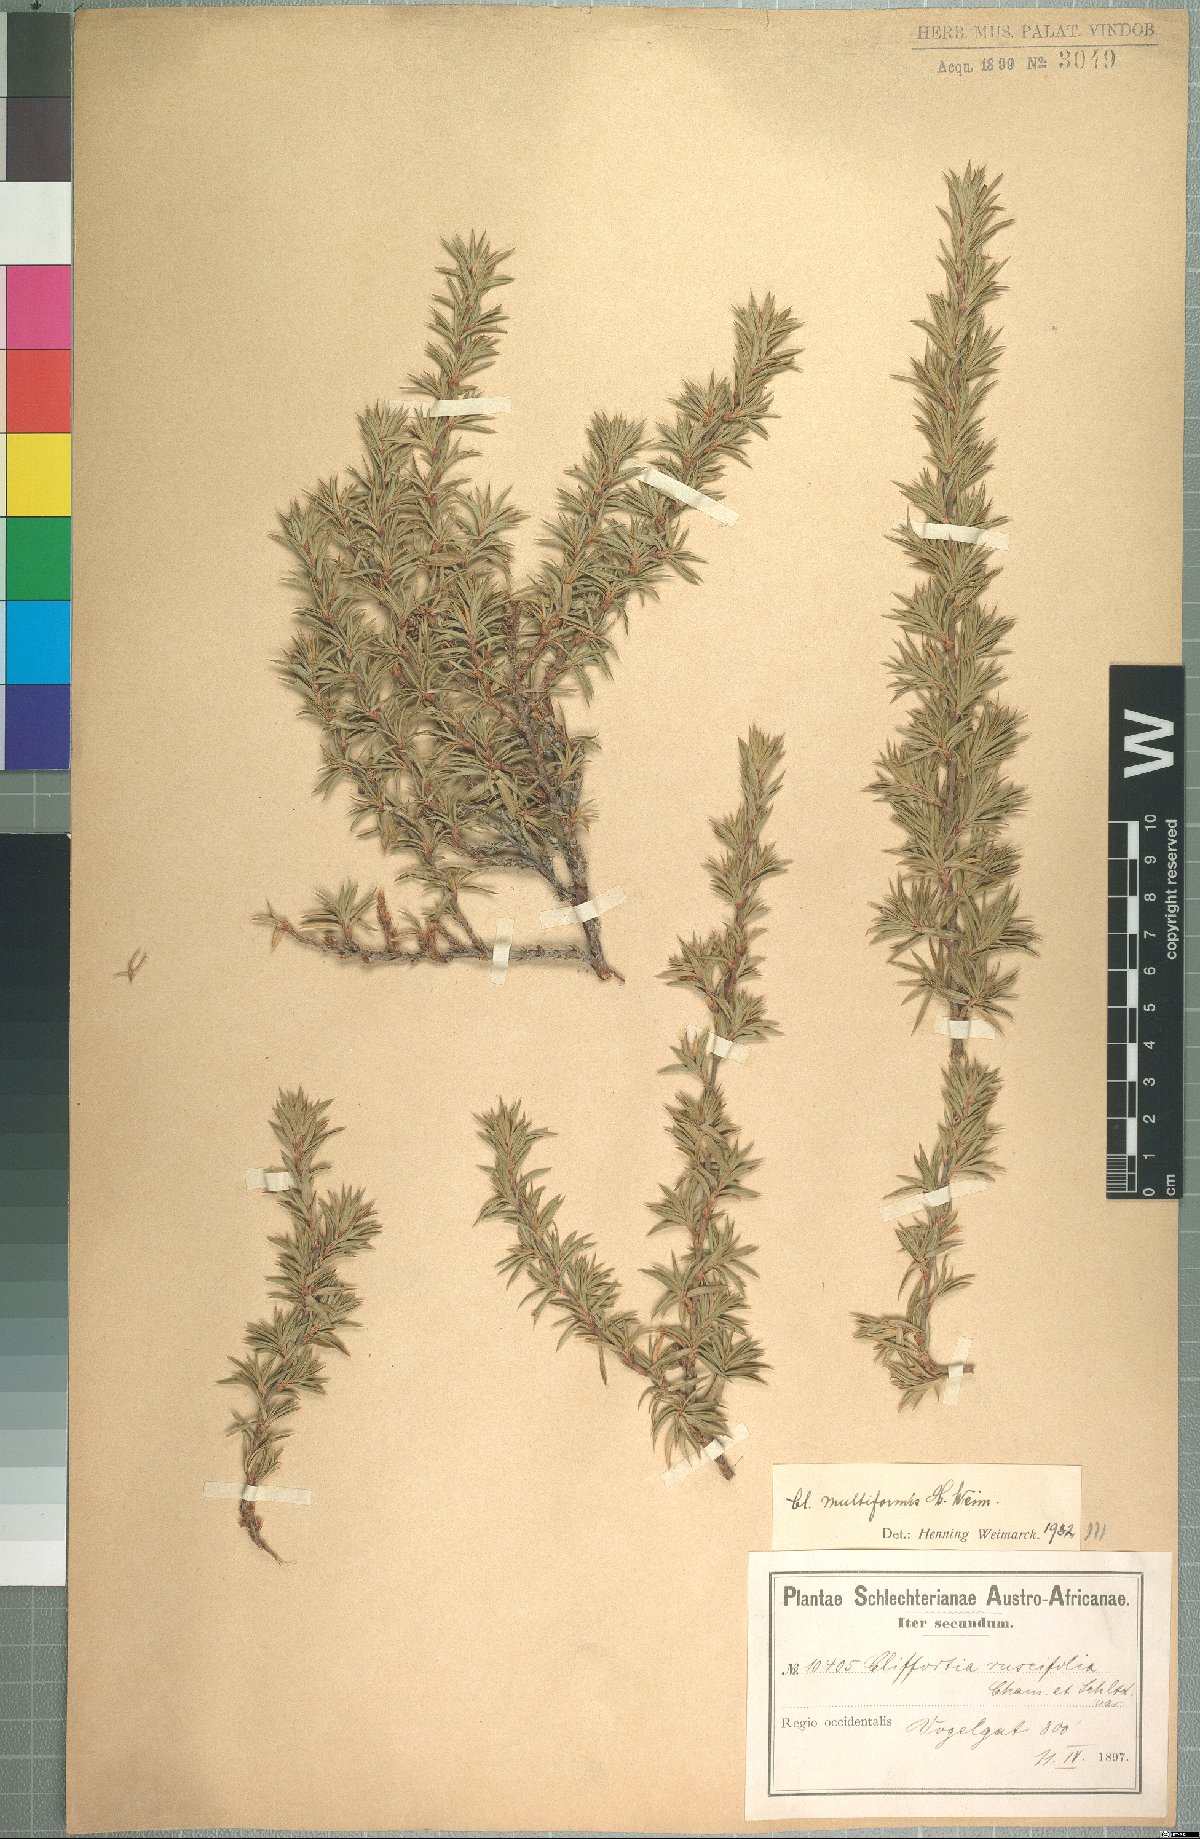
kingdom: Plantae
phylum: Tracheophyta
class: Magnoliopsida
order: Rosales
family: Rosaceae
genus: Cliffortia
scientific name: Cliffortia multiformis
